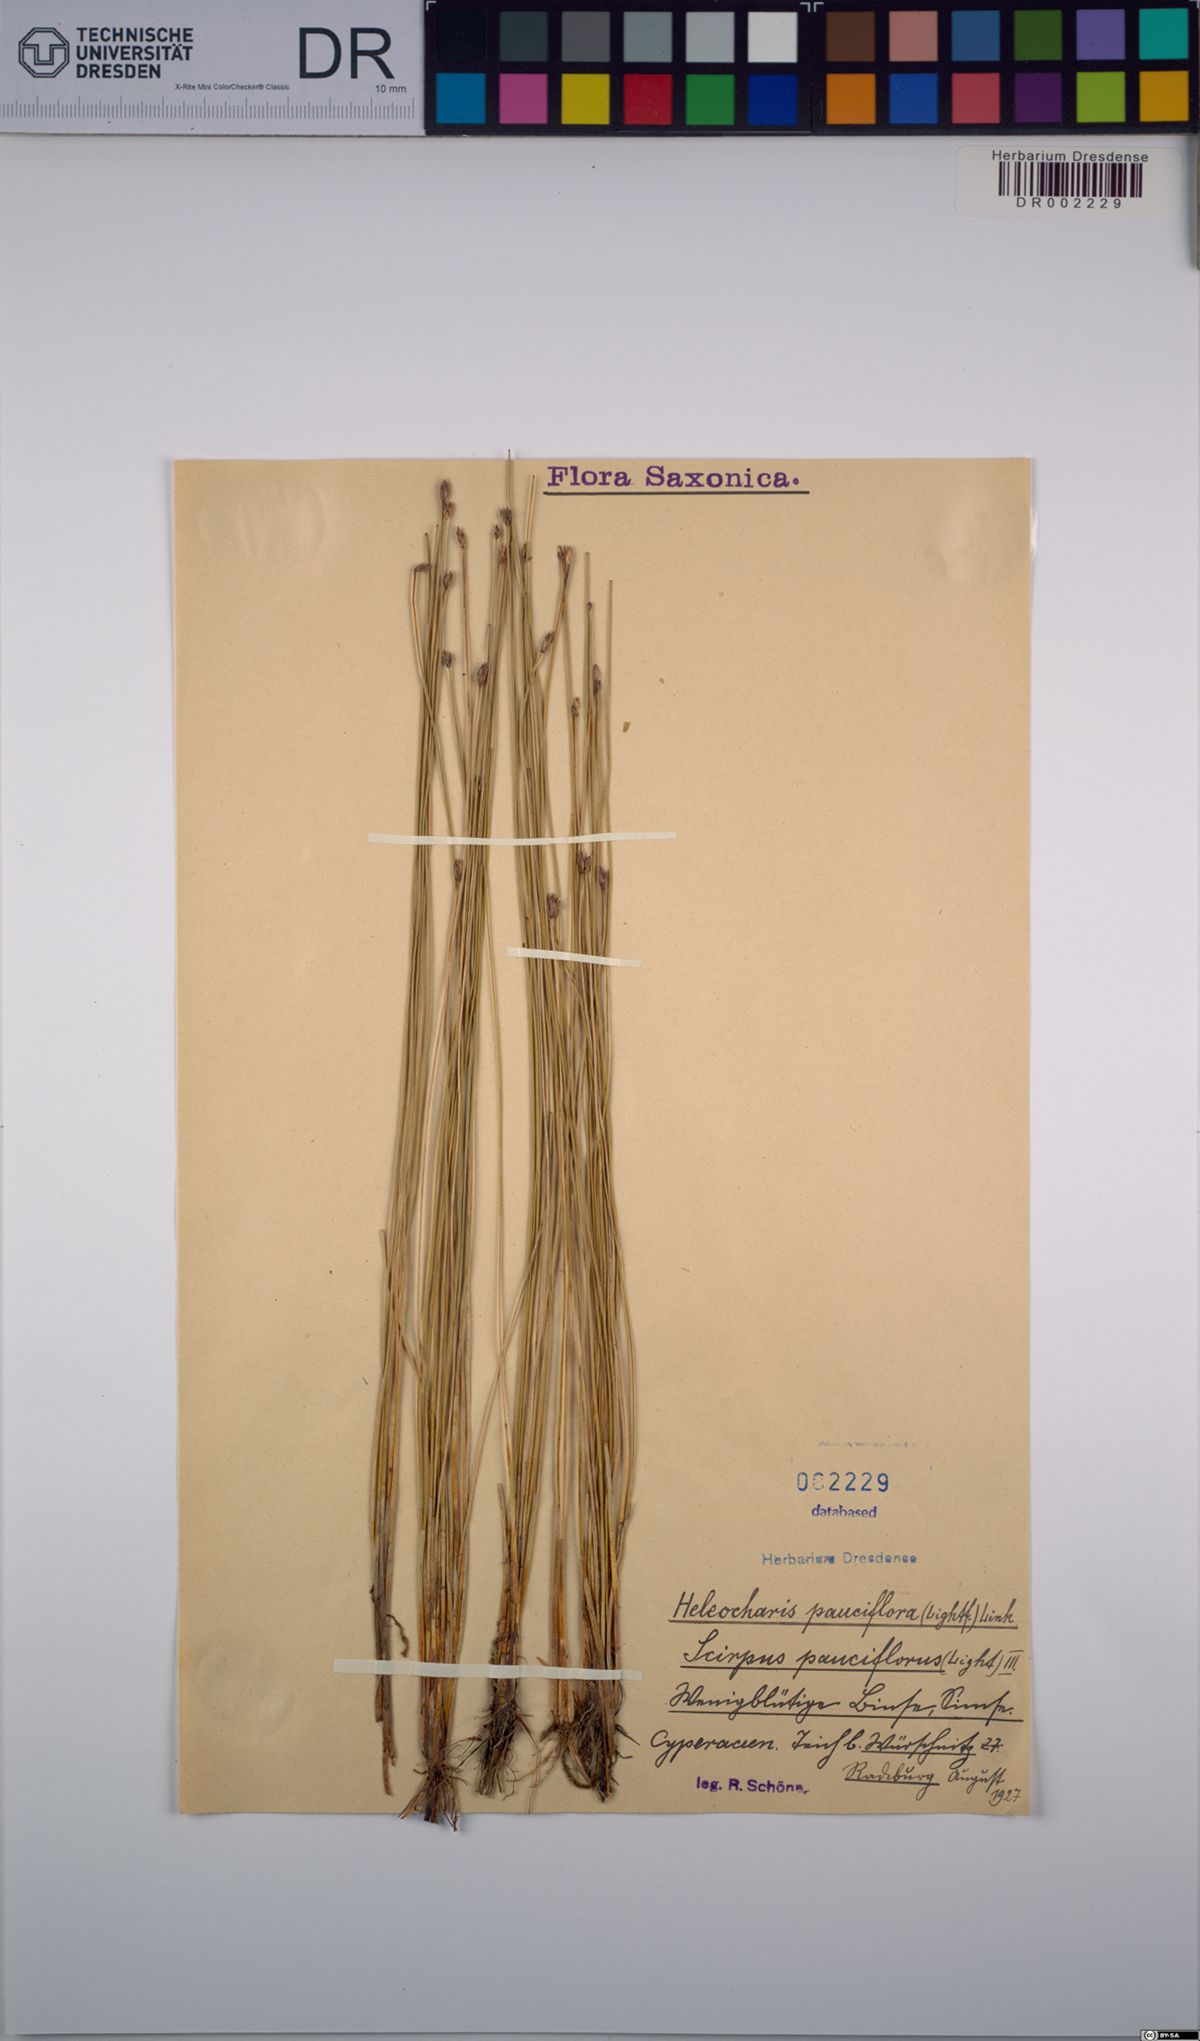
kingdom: Plantae
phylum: Tracheophyta
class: Liliopsida
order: Poales
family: Cyperaceae
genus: Eleocharis
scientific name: Eleocharis quinqueflora
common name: Few-flowered spike-rush
